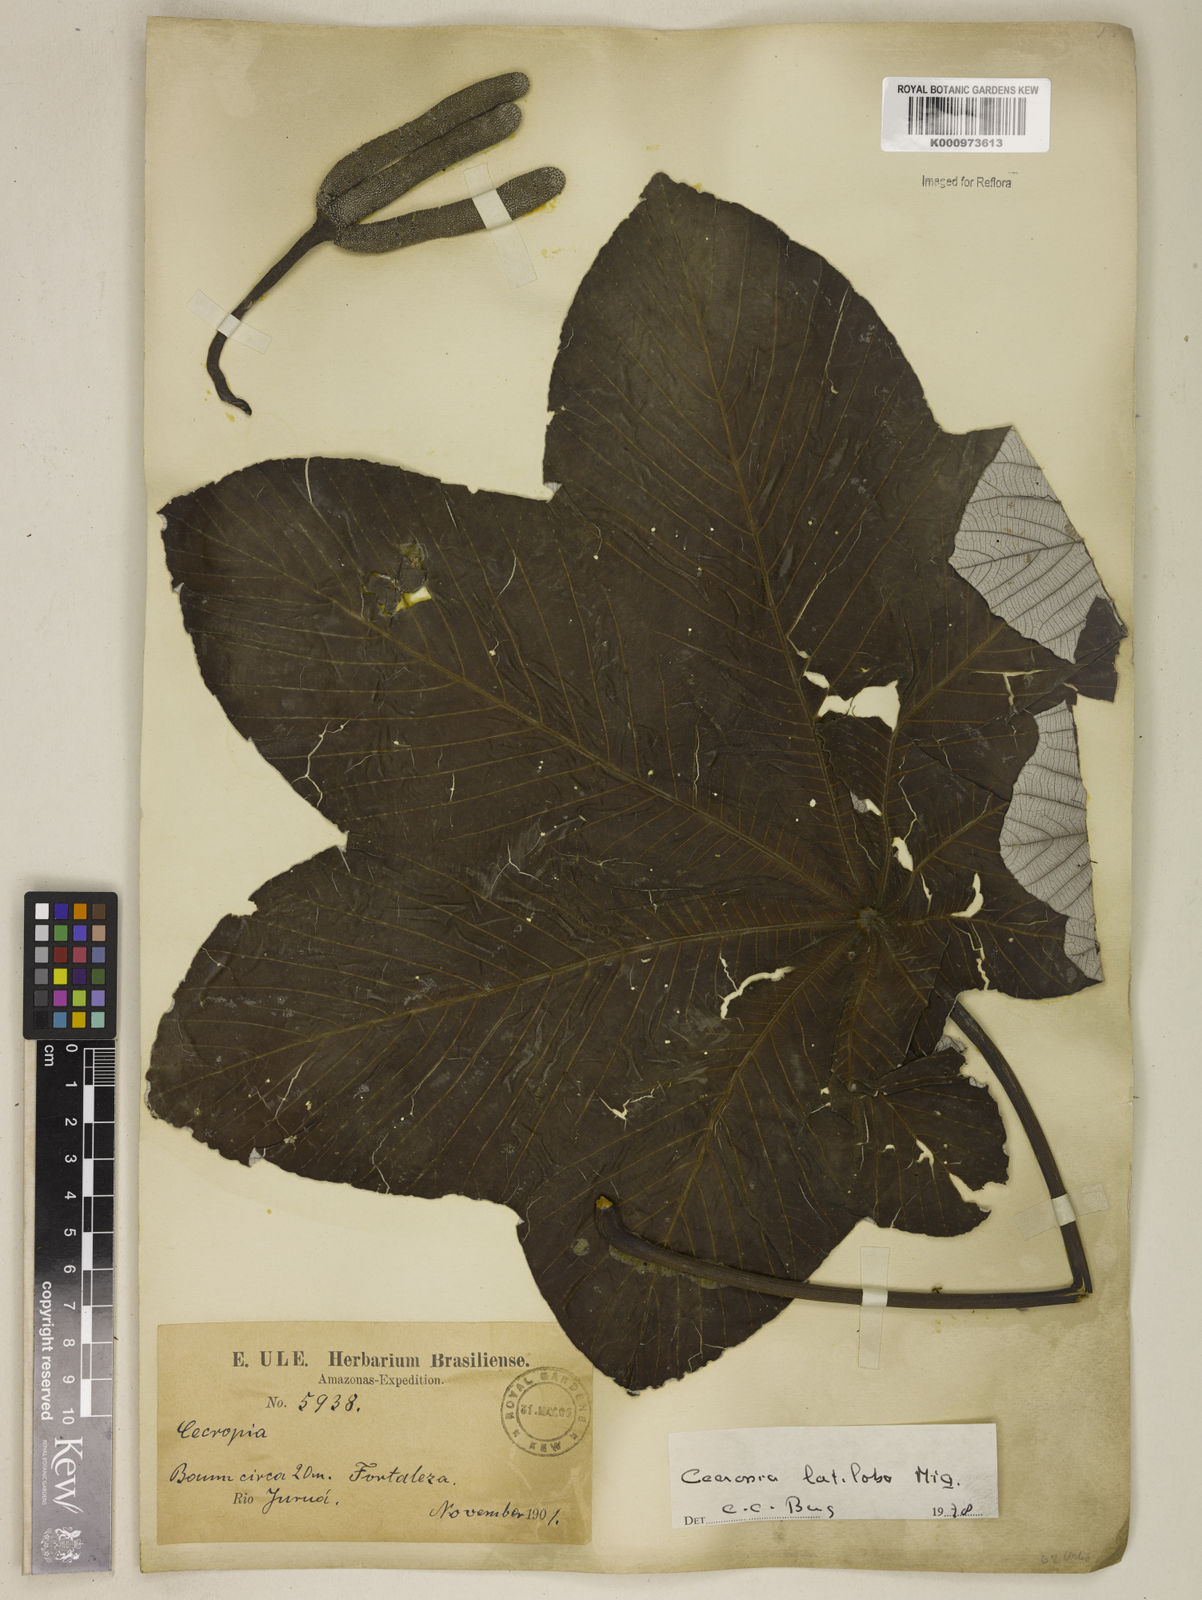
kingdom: Plantae
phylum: Tracheophyta
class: Magnoliopsida
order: Rosales
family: Urticaceae
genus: Cecropia
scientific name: Cecropia latiloba
